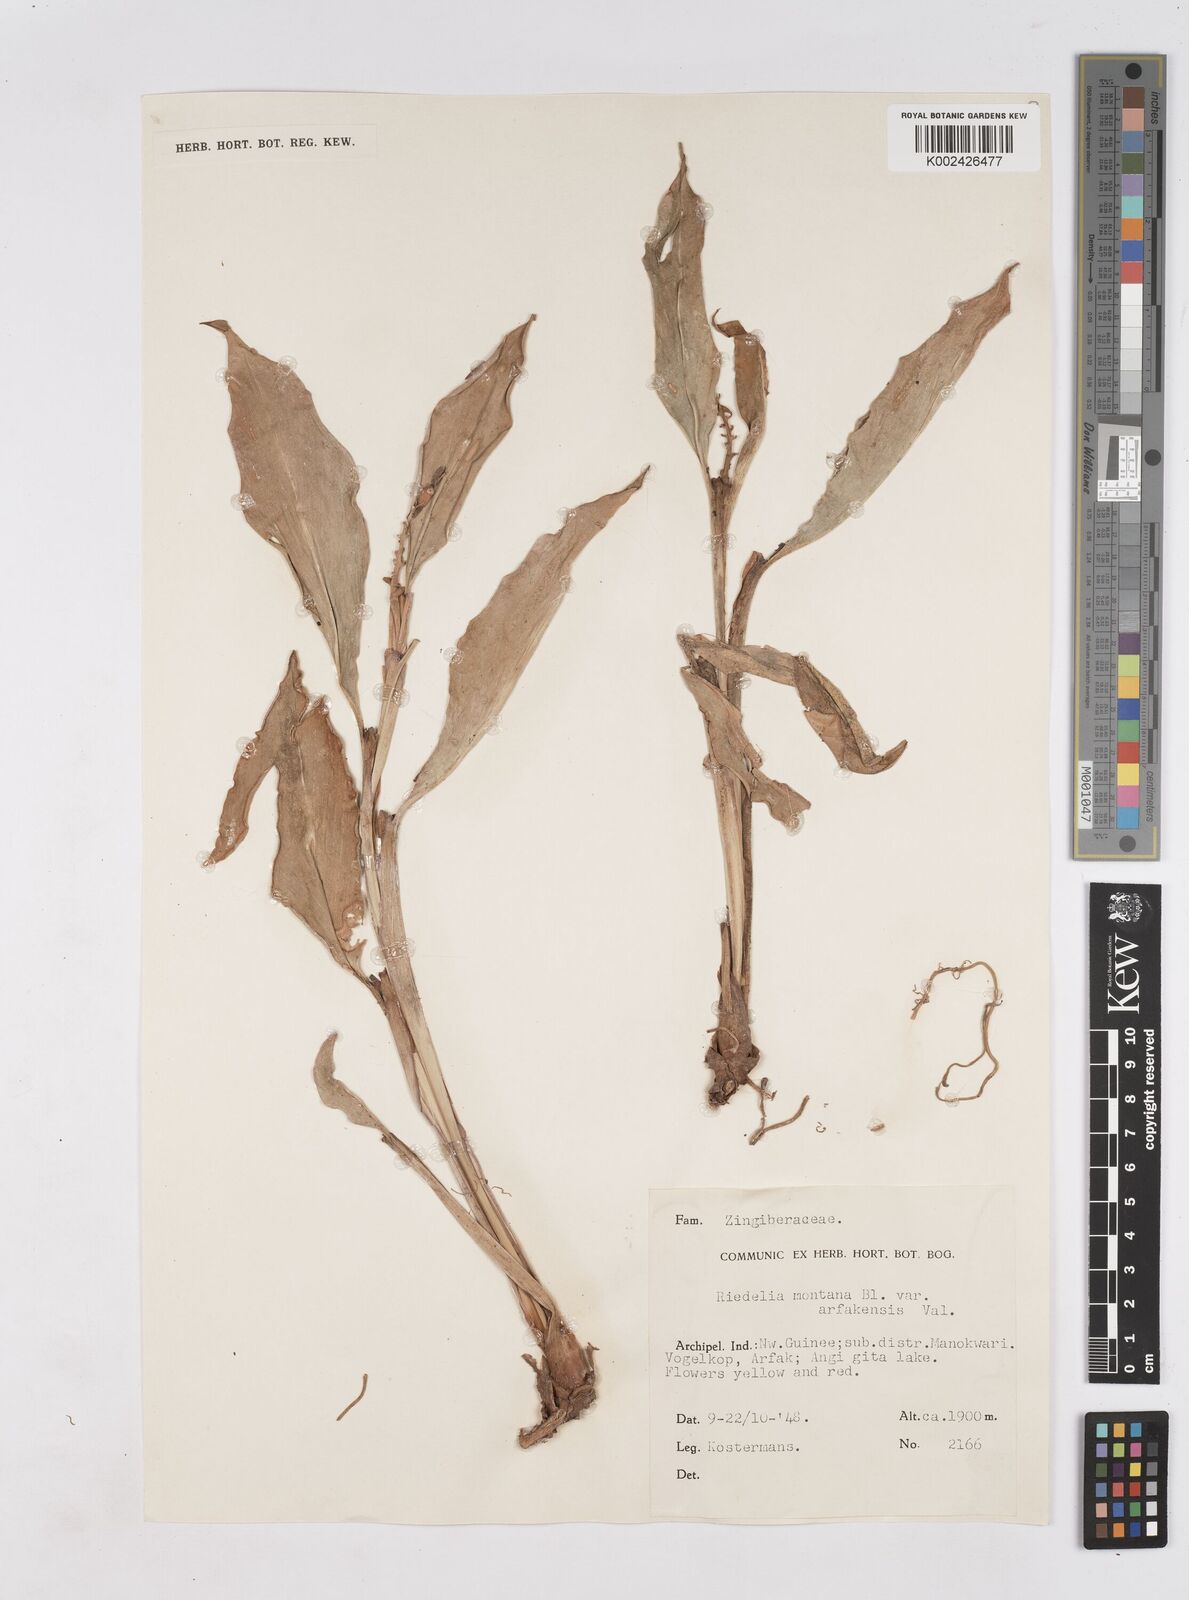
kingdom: Plantae
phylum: Tracheophyta
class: Liliopsida
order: Zingiberales
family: Zingiberaceae
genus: Riedelia
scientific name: Riedelia montana
